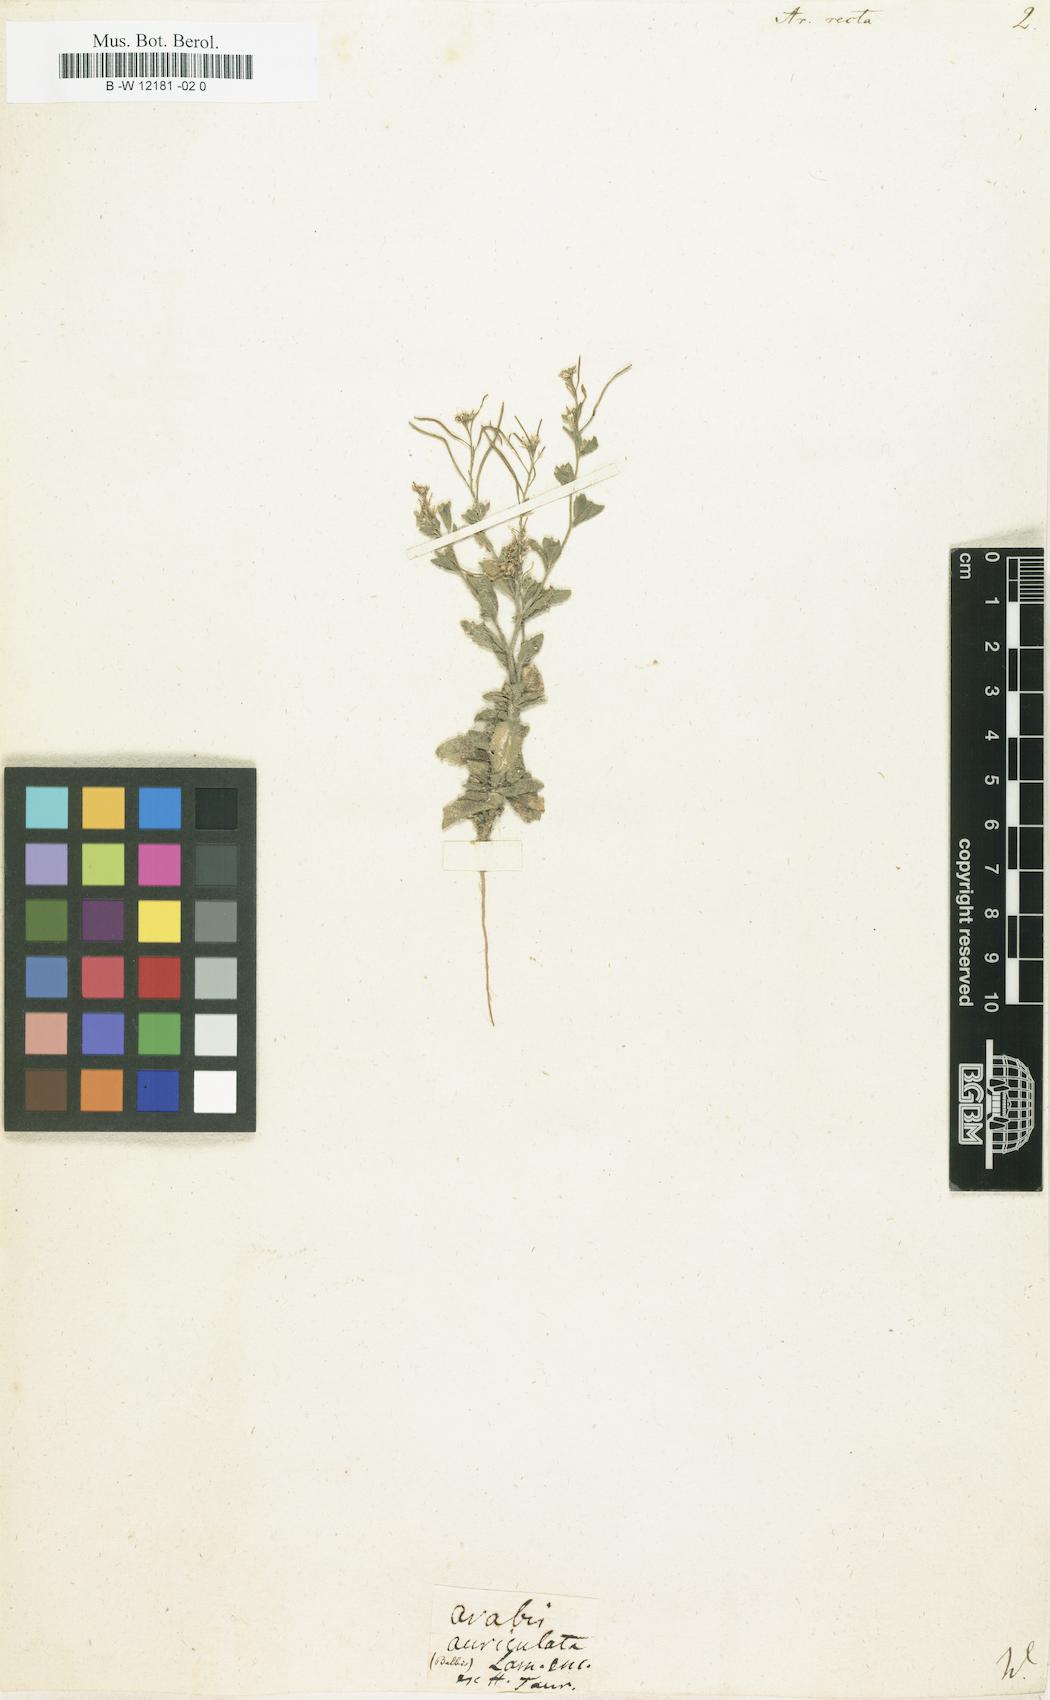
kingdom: Plantae
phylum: Tracheophyta
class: Magnoliopsida
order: Brassicales
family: Brassicaceae
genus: Arabis
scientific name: Arabis auriculata
